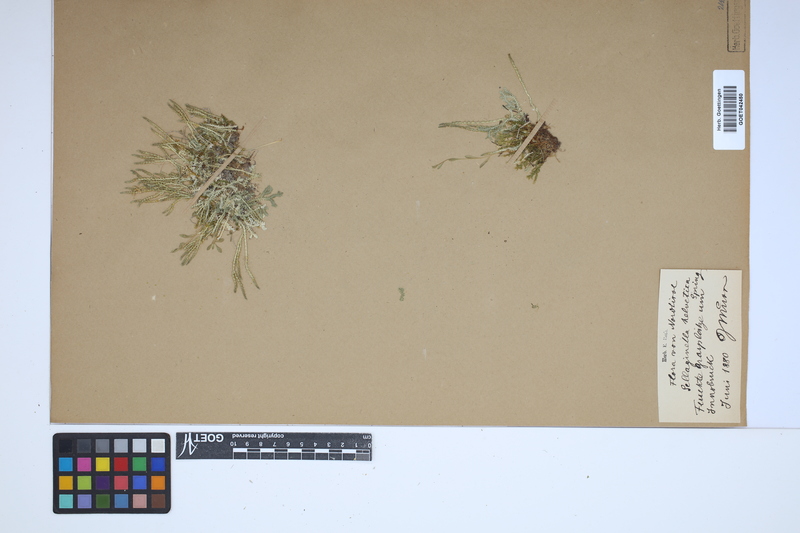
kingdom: Plantae
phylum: Tracheophyta
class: Lycopodiopsida
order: Selaginellales
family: Selaginellaceae
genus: Selaginella
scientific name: Selaginella helvetica
